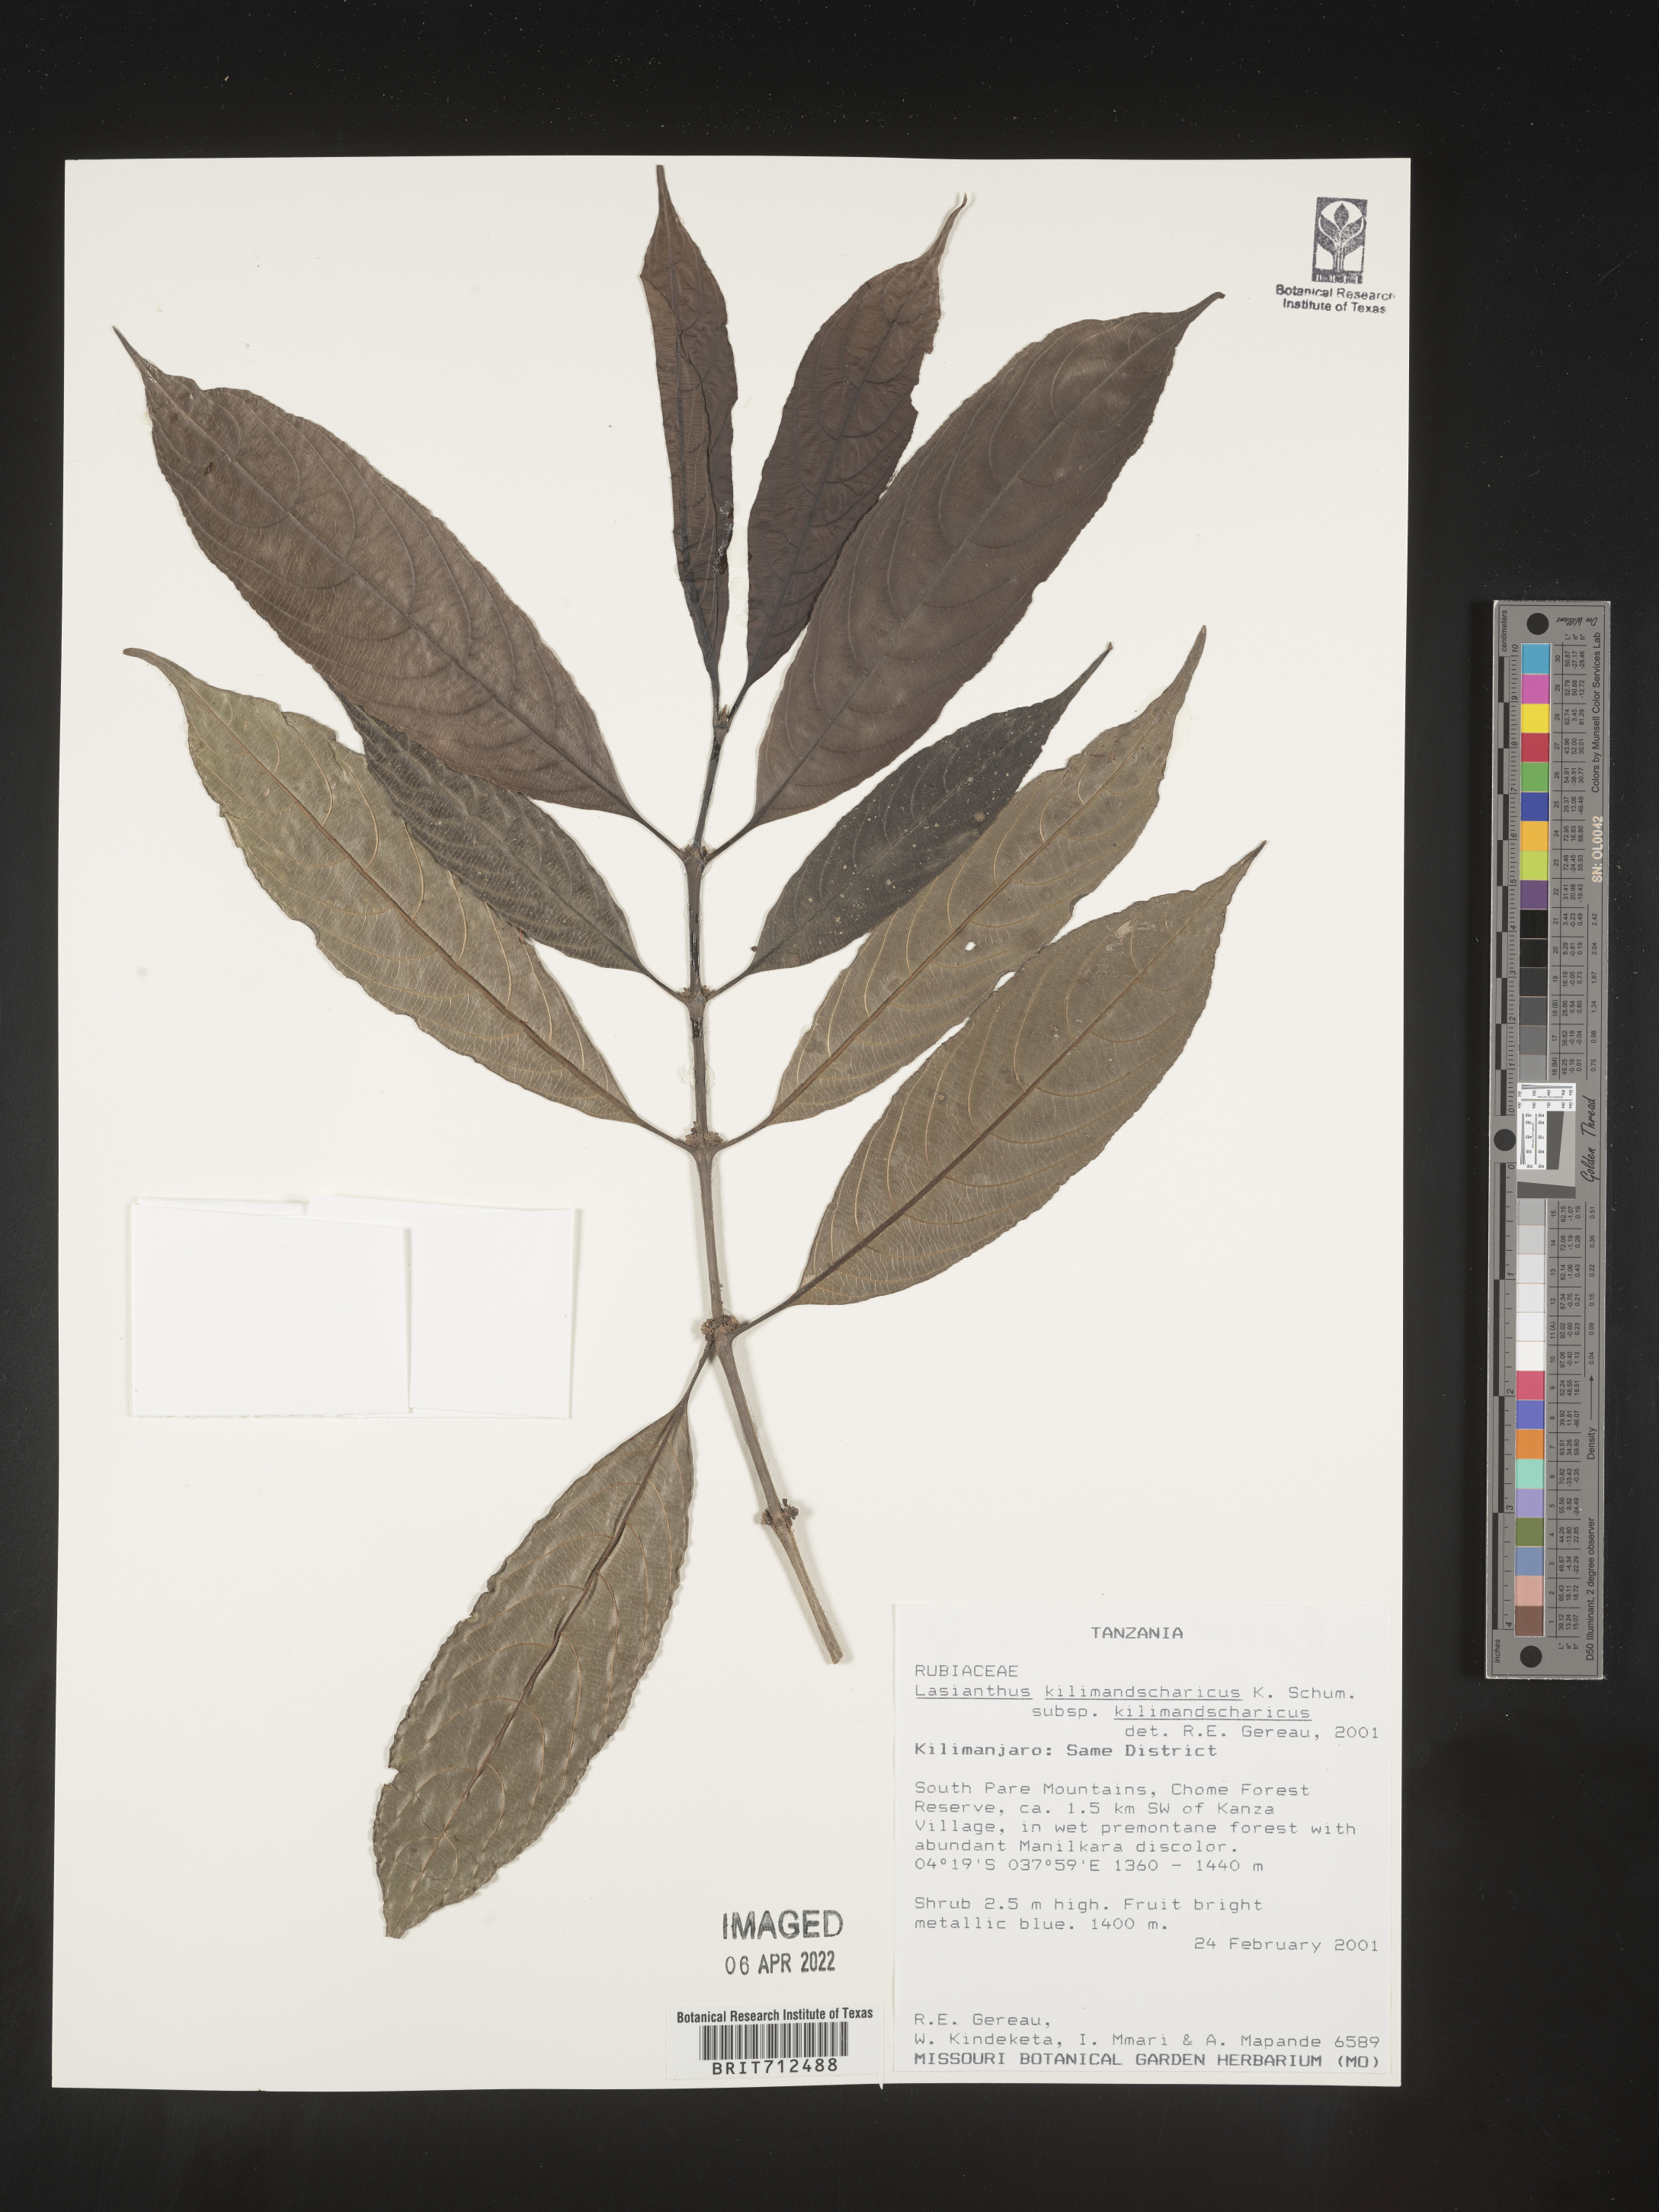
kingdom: Plantae
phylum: Tracheophyta
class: Magnoliopsida
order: Gentianales
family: Rubiaceae
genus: Lasianthus
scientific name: Lasianthus
